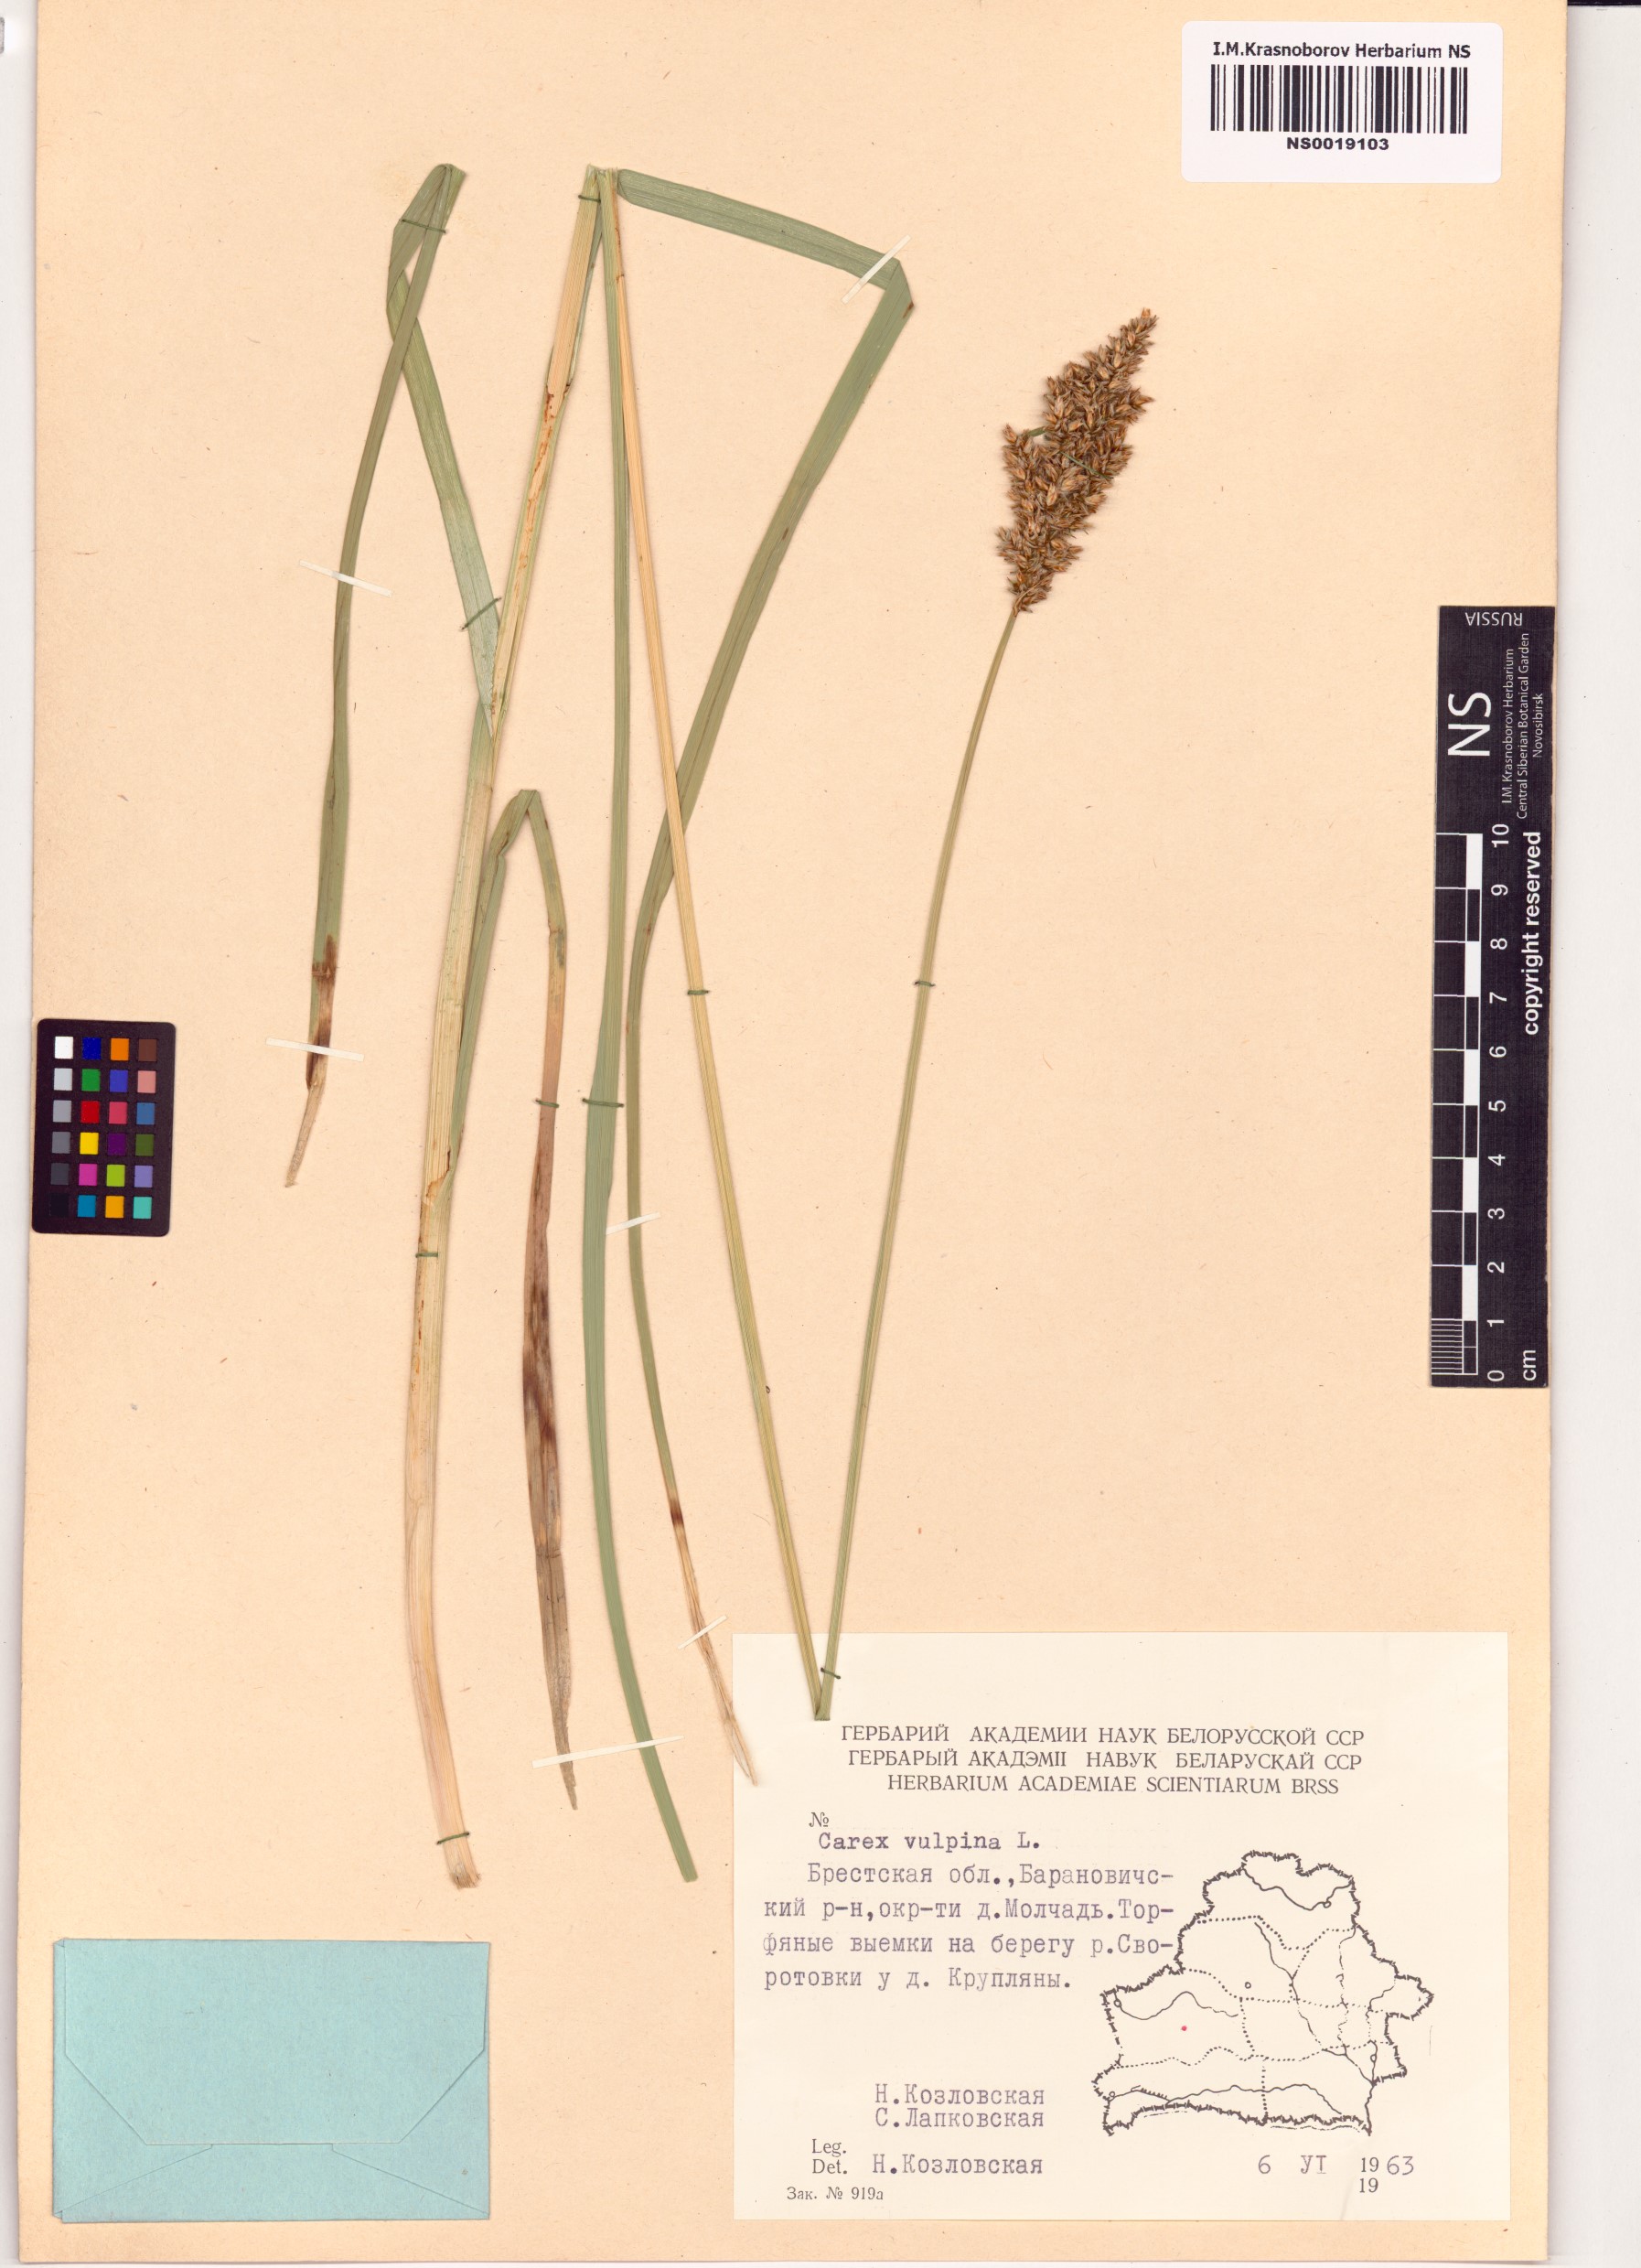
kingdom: Plantae
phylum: Tracheophyta
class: Liliopsida
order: Poales
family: Cyperaceae
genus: Carex
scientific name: Carex vulpina
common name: True fox-sedge
